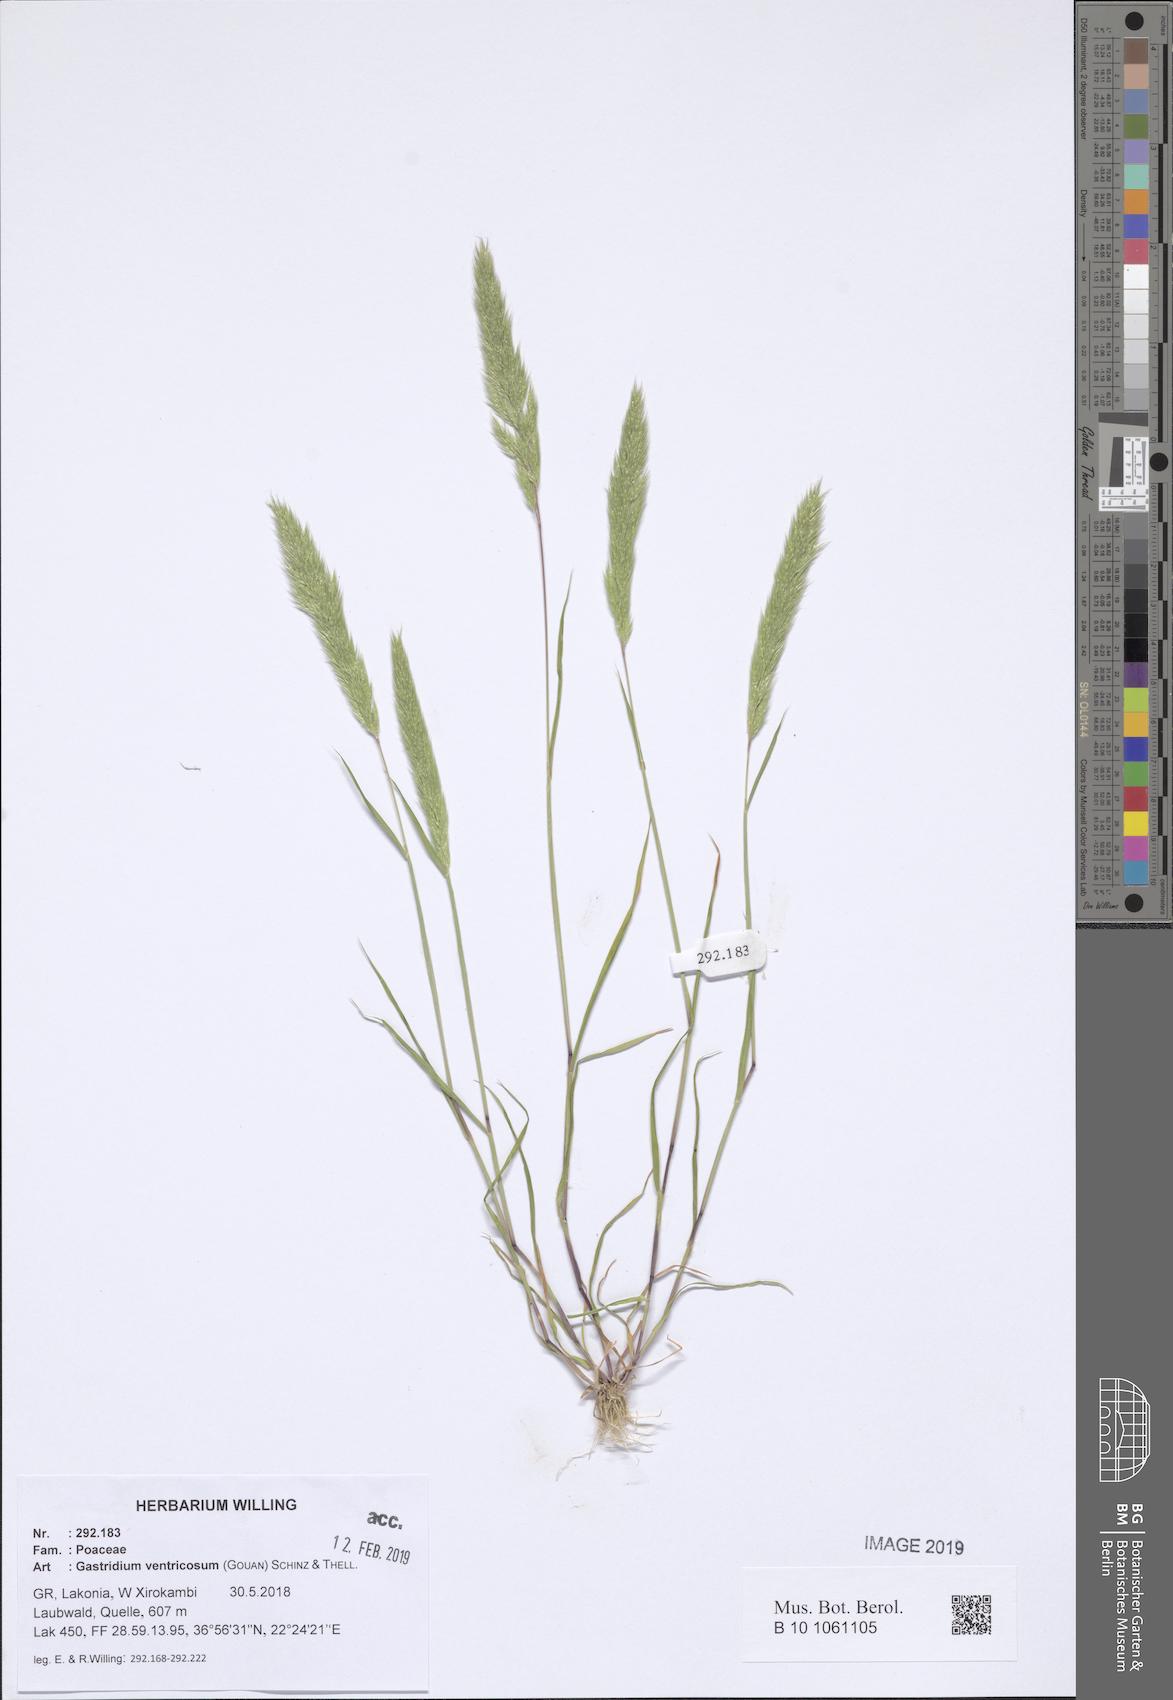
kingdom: Plantae
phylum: Tracheophyta
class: Liliopsida
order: Poales
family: Poaceae
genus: Gastridium
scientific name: Gastridium ventricosum
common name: Nit-grass
